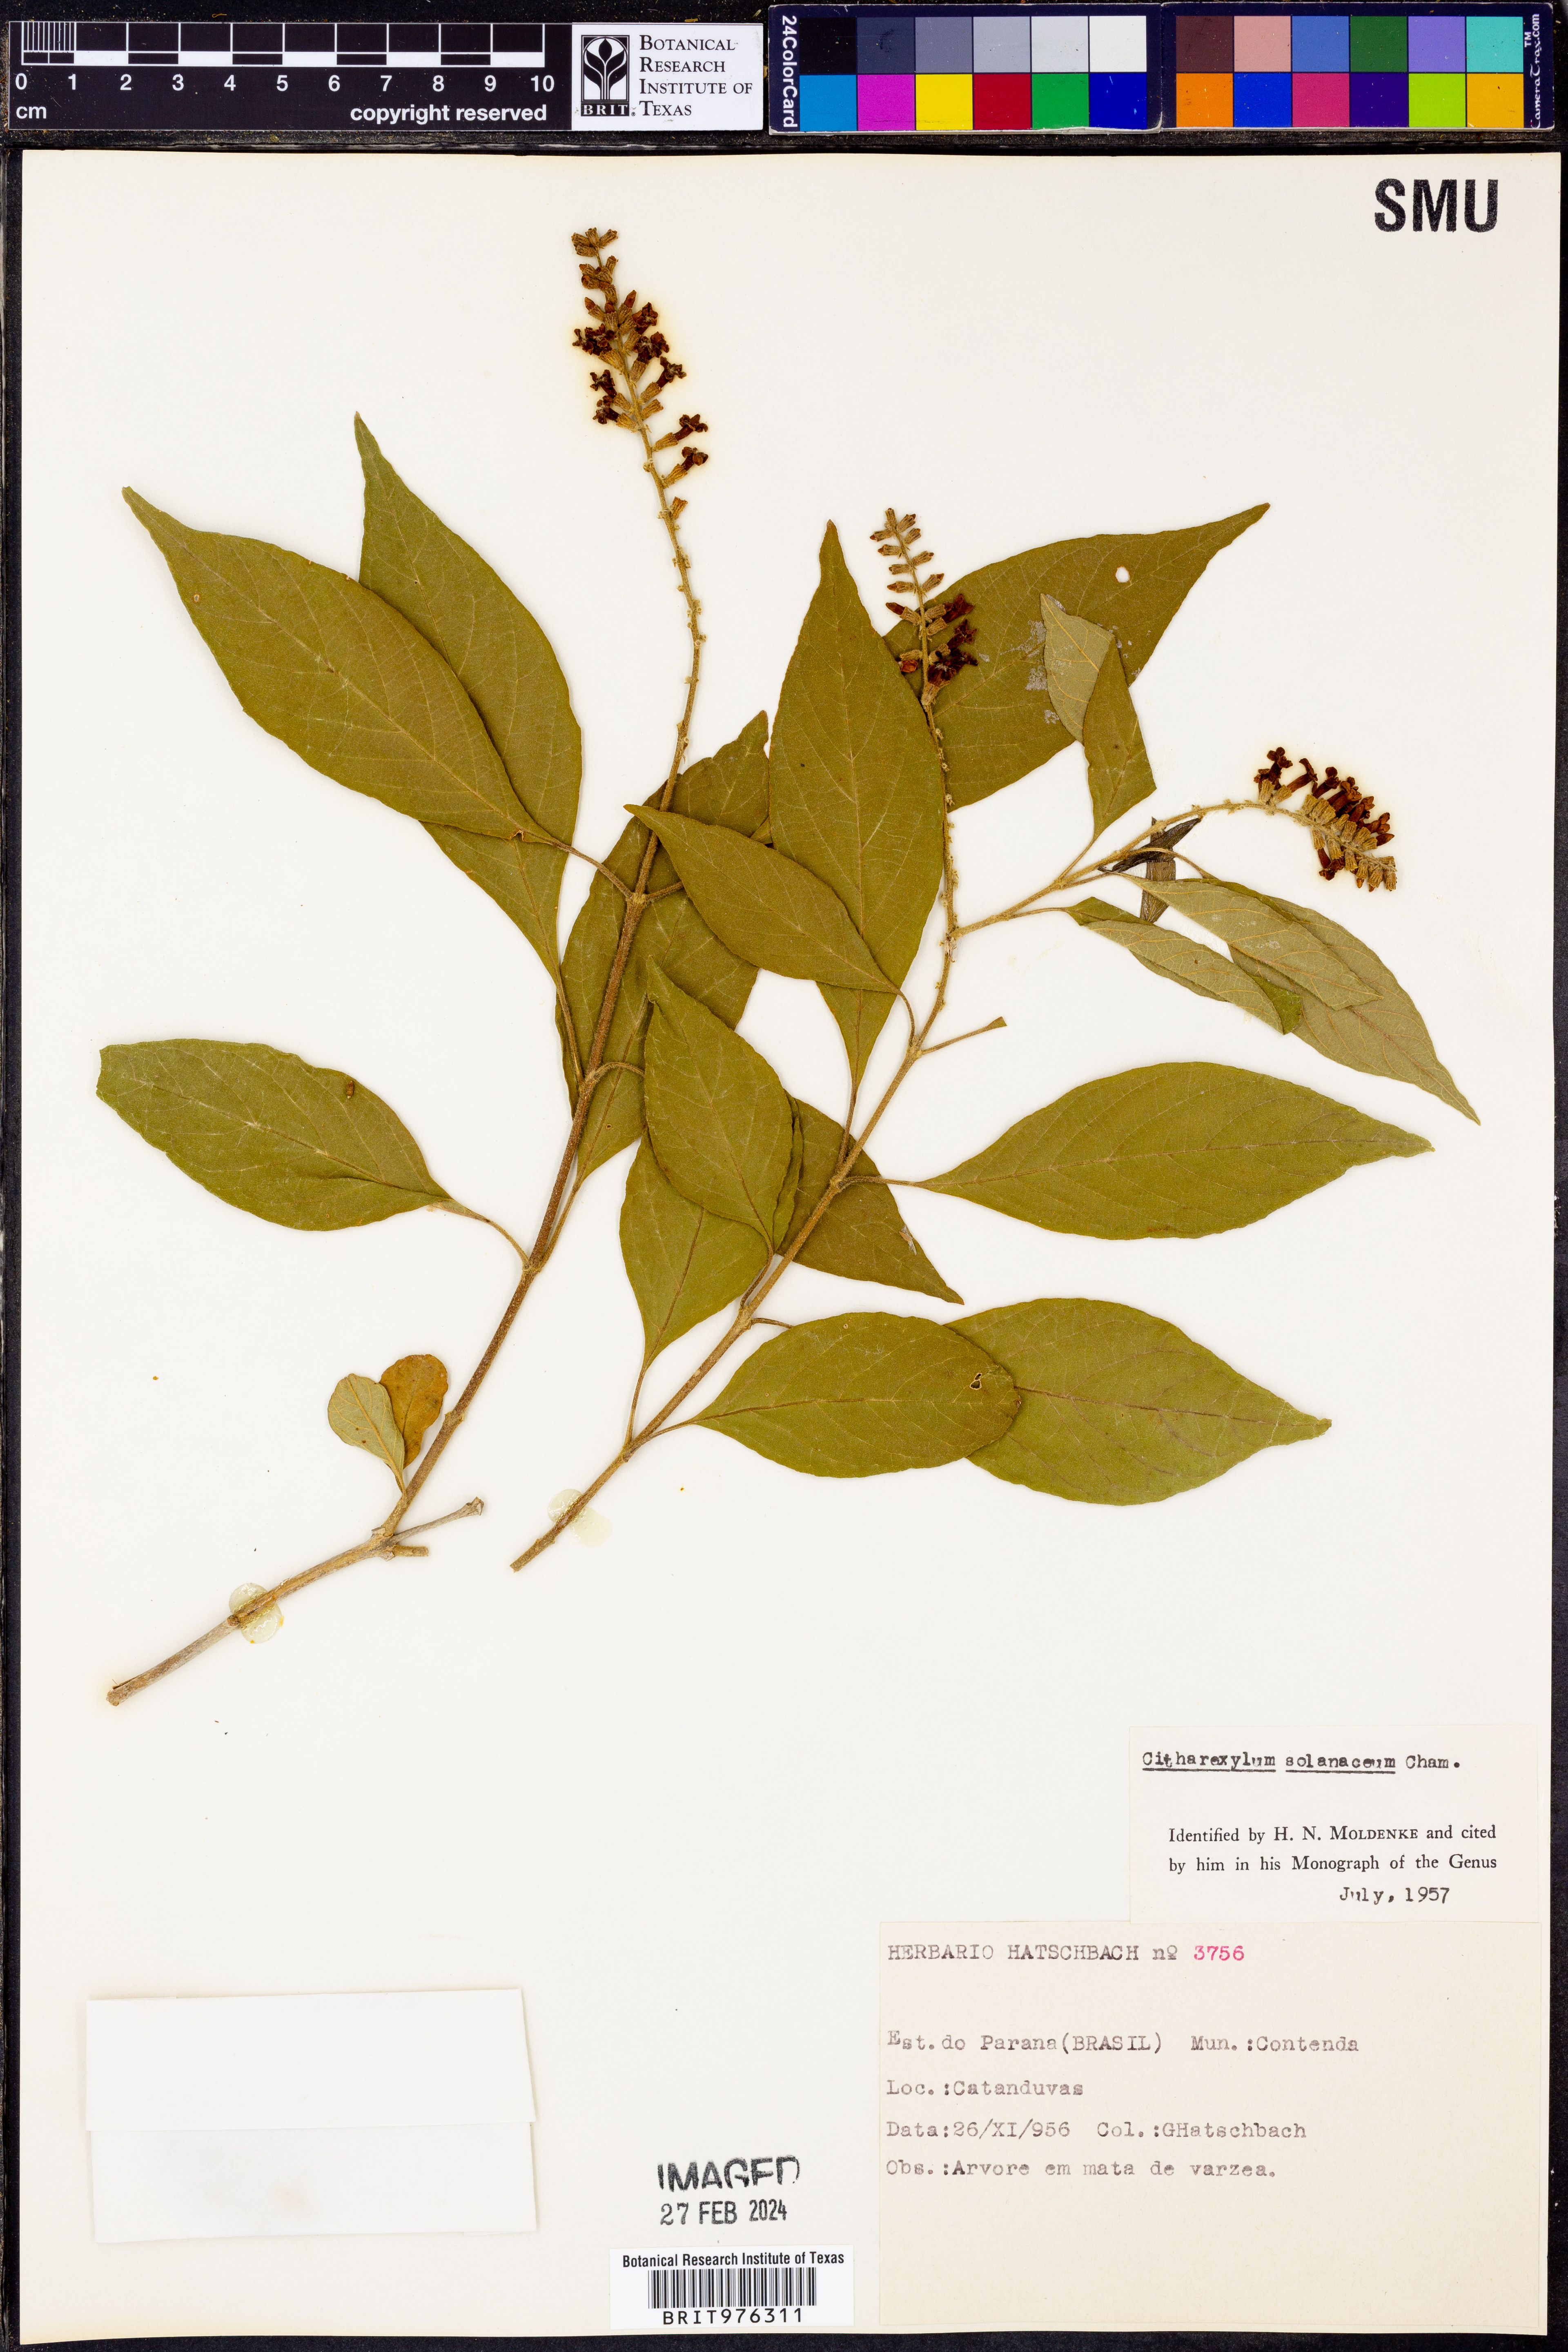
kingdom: Plantae
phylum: Tracheophyta
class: Magnoliopsida
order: Lamiales
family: Verbenaceae
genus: Citharexylum
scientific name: Citharexylum
